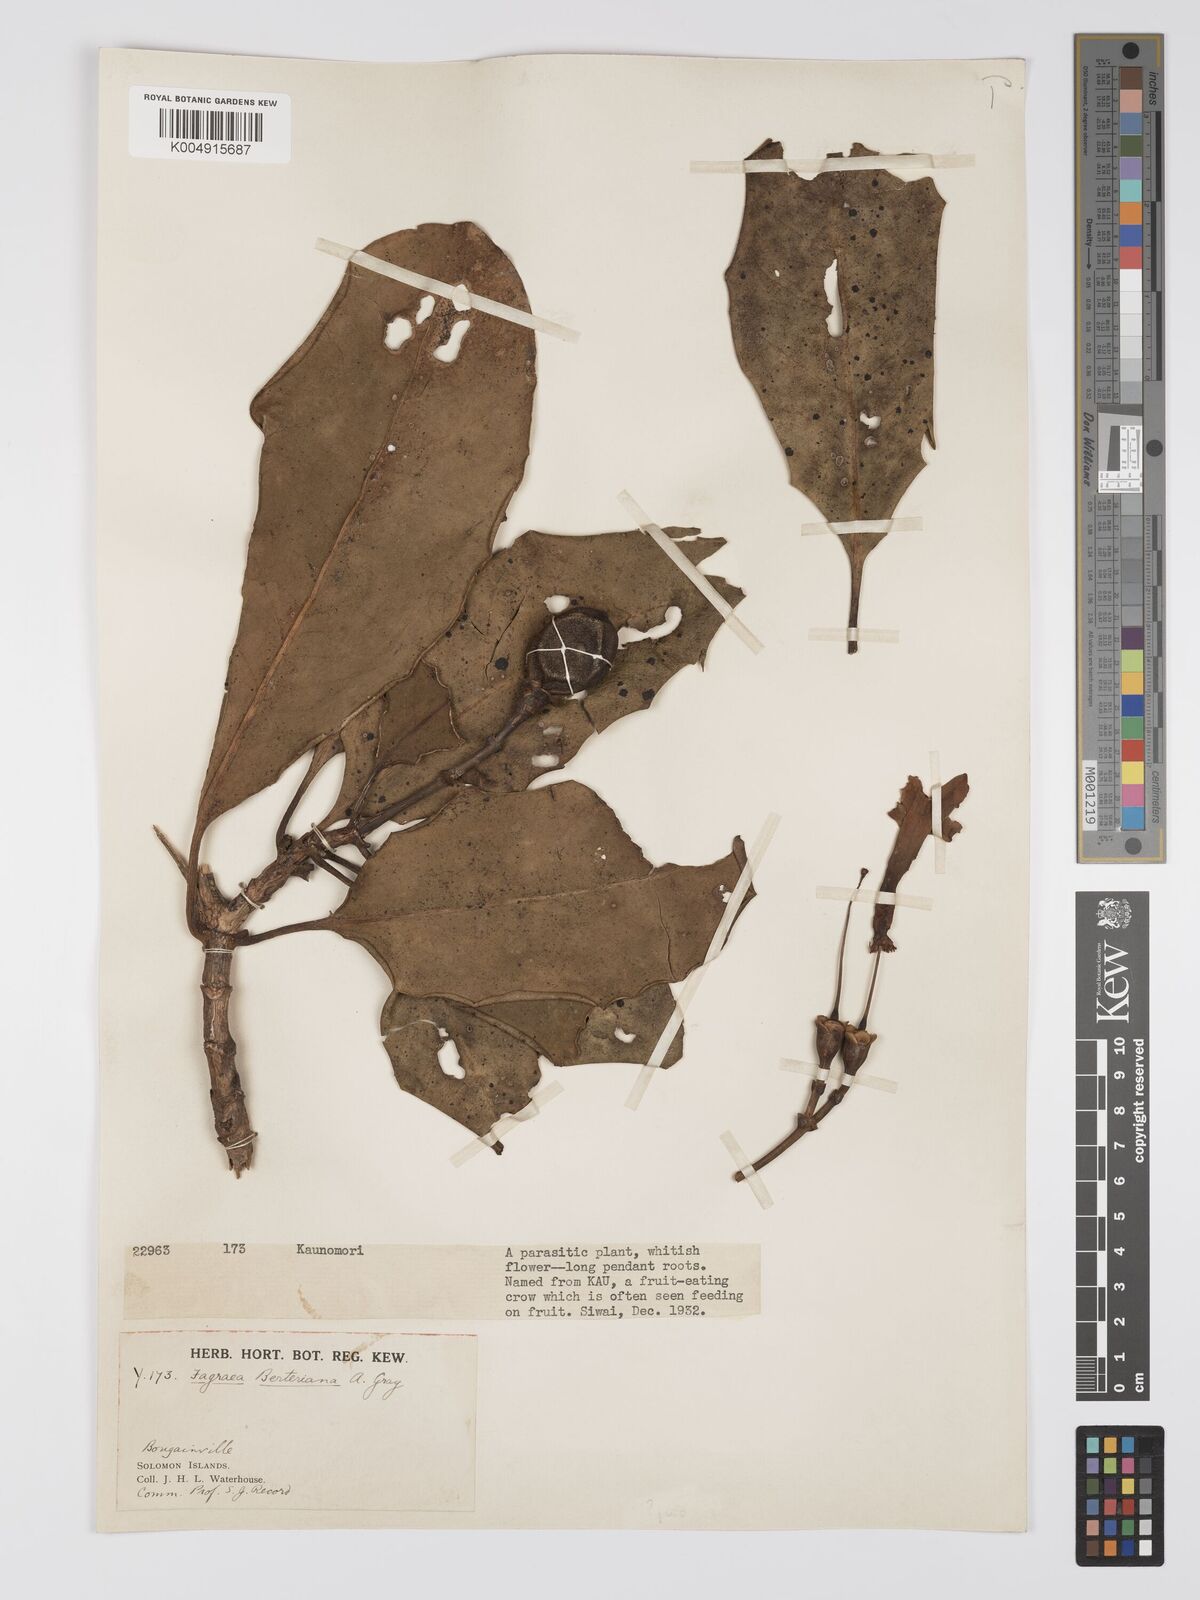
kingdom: Plantae
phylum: Tracheophyta
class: Magnoliopsida
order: Gentianales
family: Gentianaceae
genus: Fagraea
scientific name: Fagraea berteroana
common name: Cape jitta
